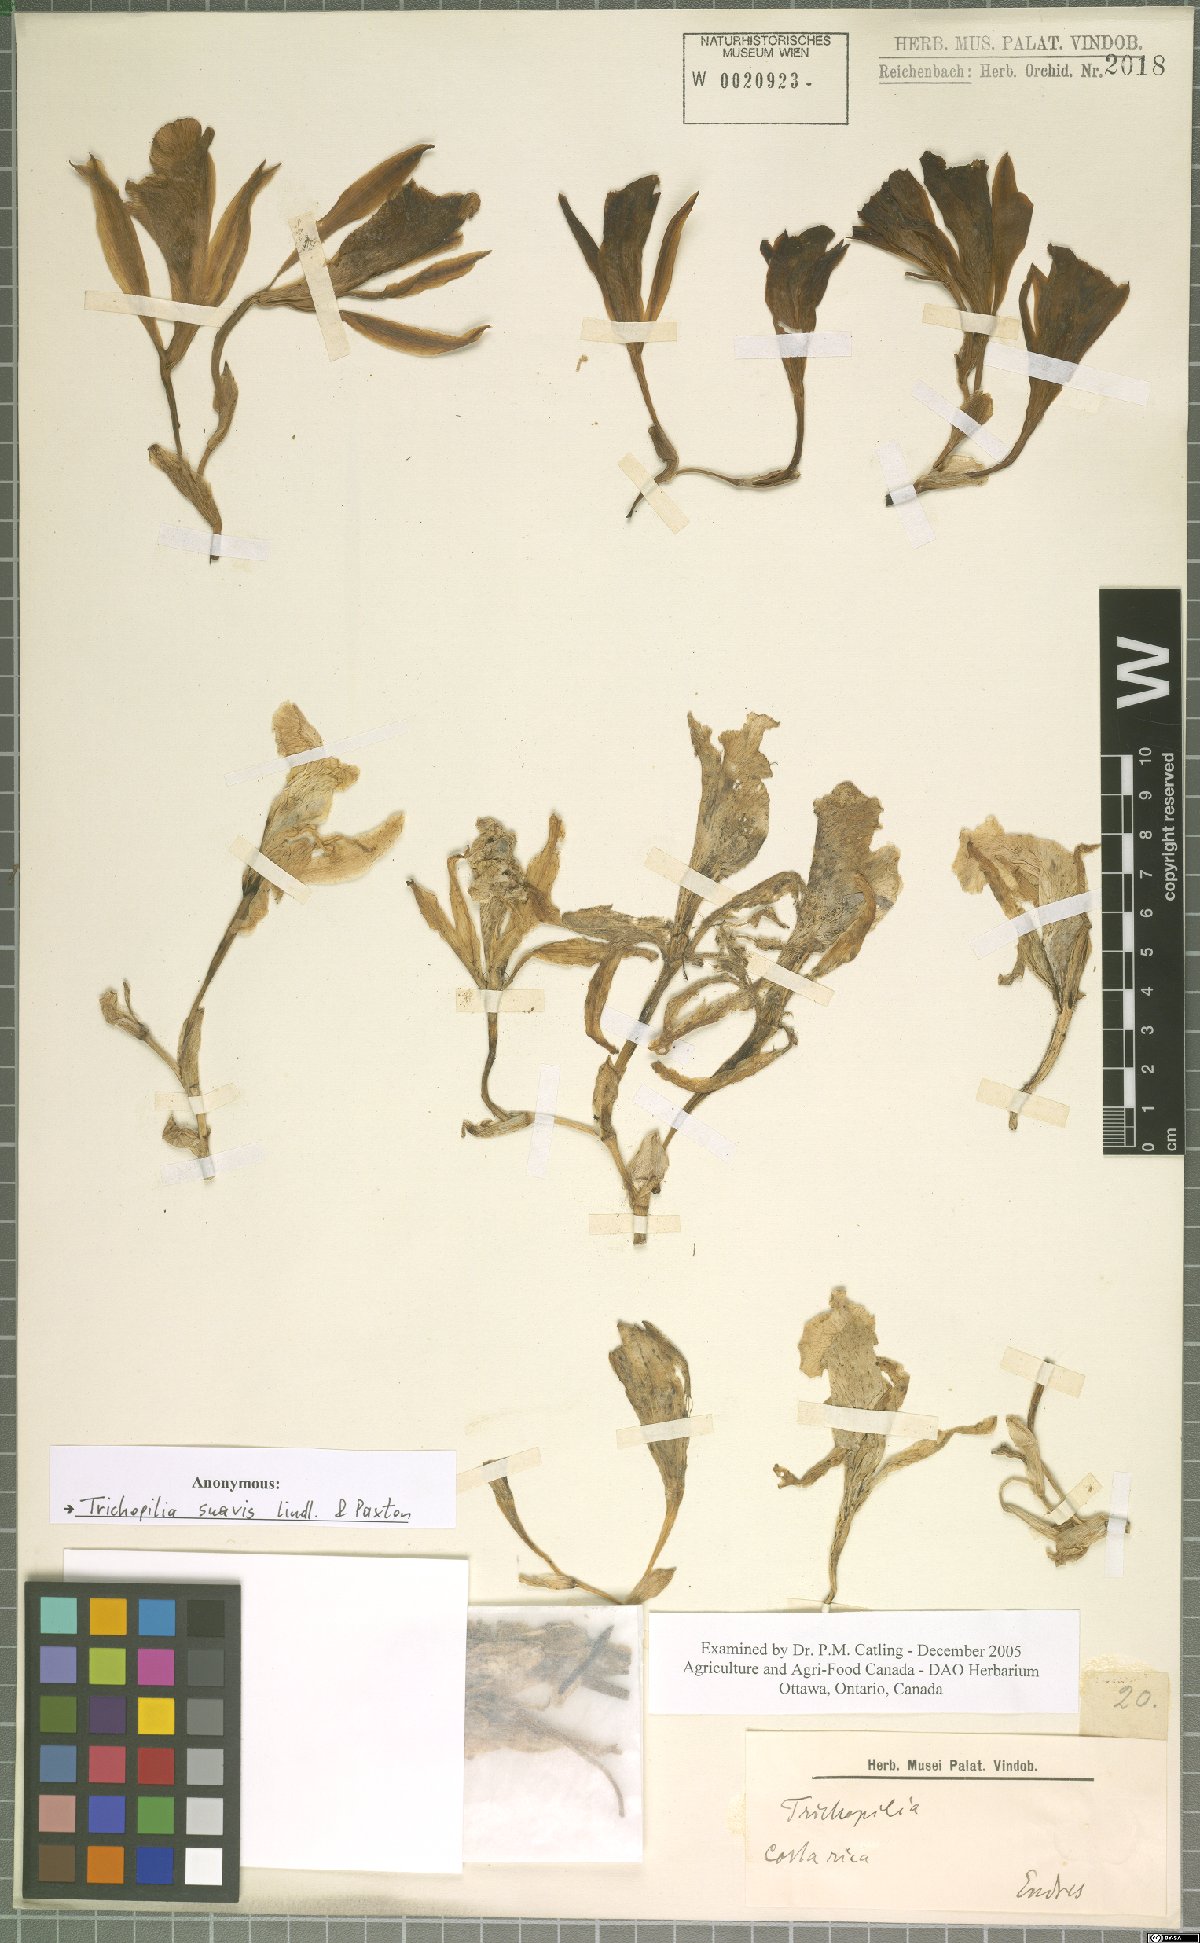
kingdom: Plantae
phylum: Tracheophyta
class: Liliopsida
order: Asparagales
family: Orchidaceae
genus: Trichopilia
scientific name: Trichopilia suavis
